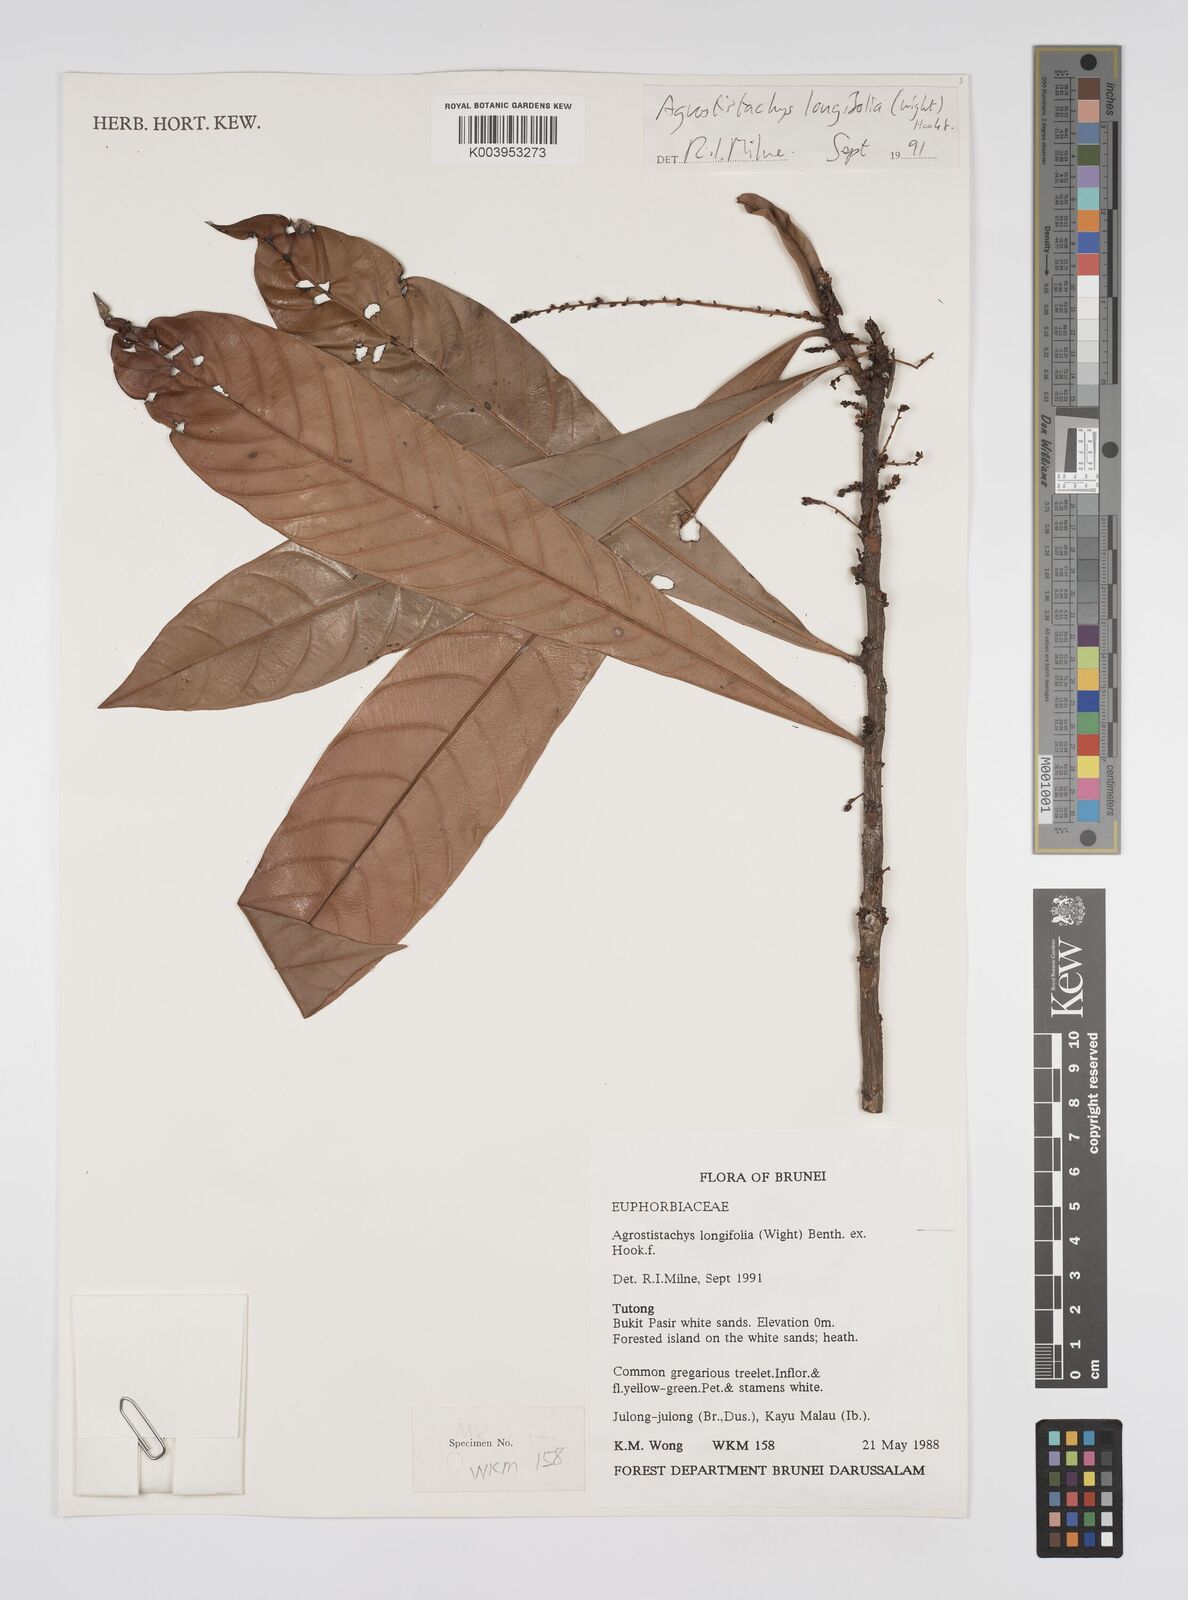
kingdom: Plantae
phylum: Tracheophyta
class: Magnoliopsida
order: Malpighiales
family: Euphorbiaceae
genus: Agrostistachys
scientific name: Agrostistachys borneensis
